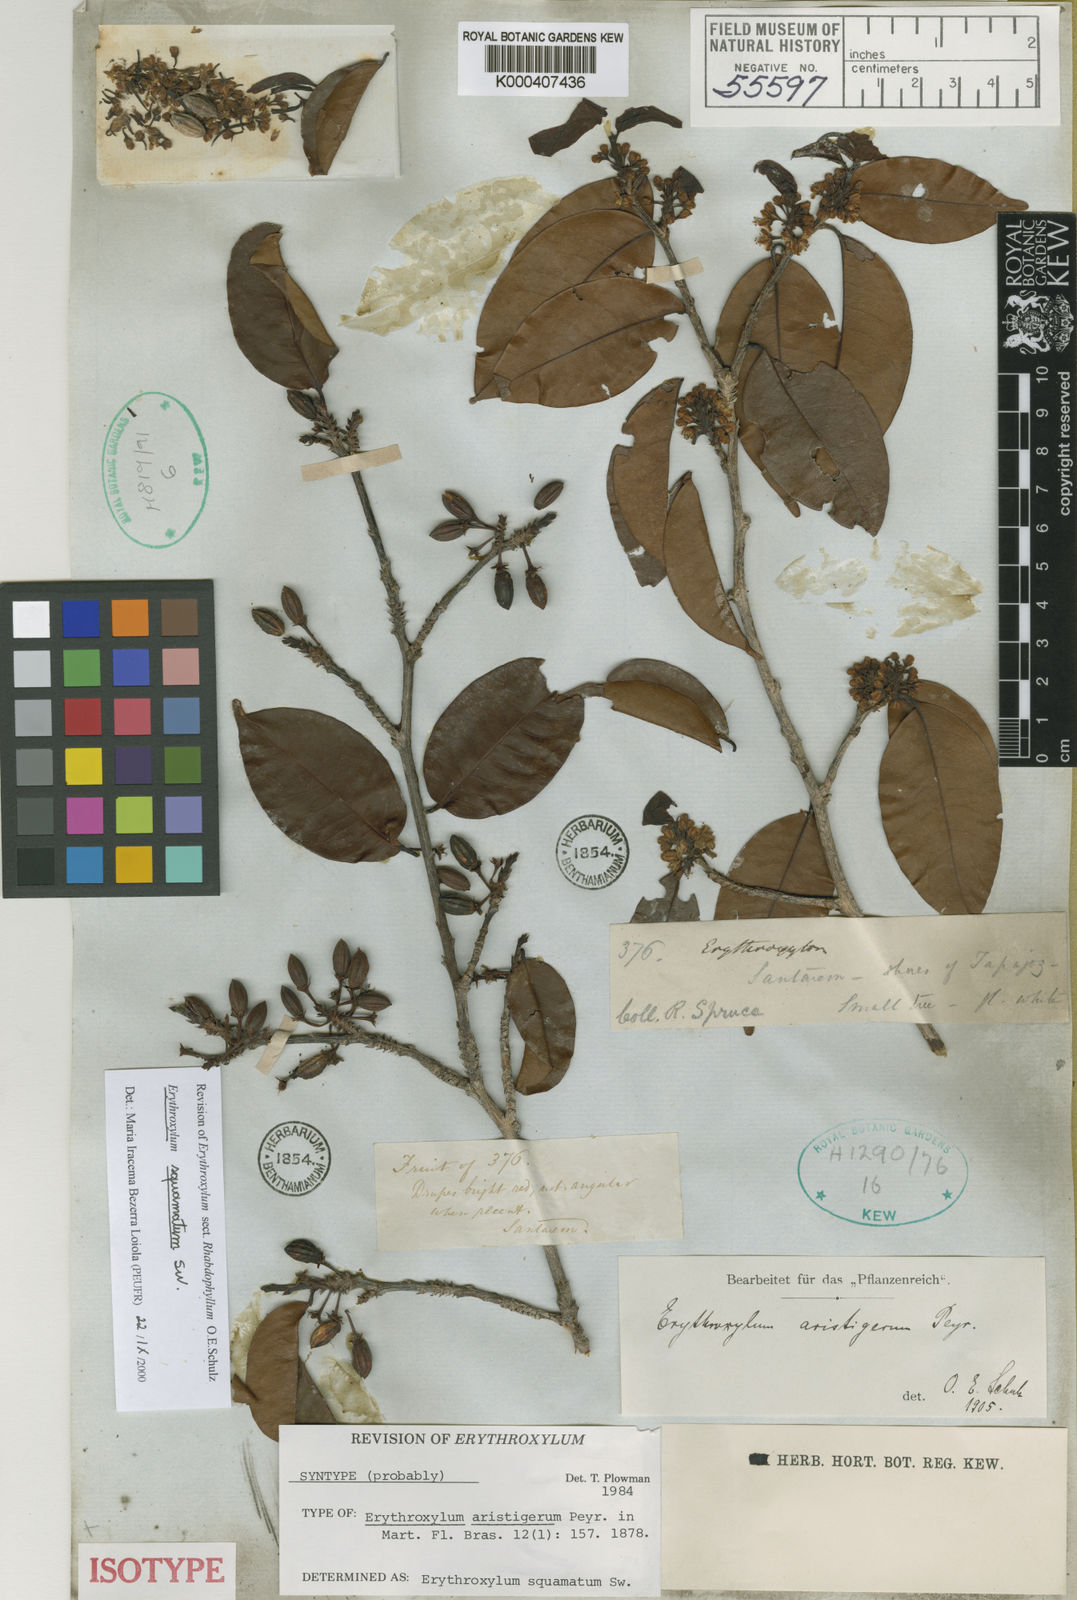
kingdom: Plantae
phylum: Tracheophyta
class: Magnoliopsida
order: Malpighiales
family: Erythroxylaceae
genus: Erythroxylum
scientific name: Erythroxylum squamatum
